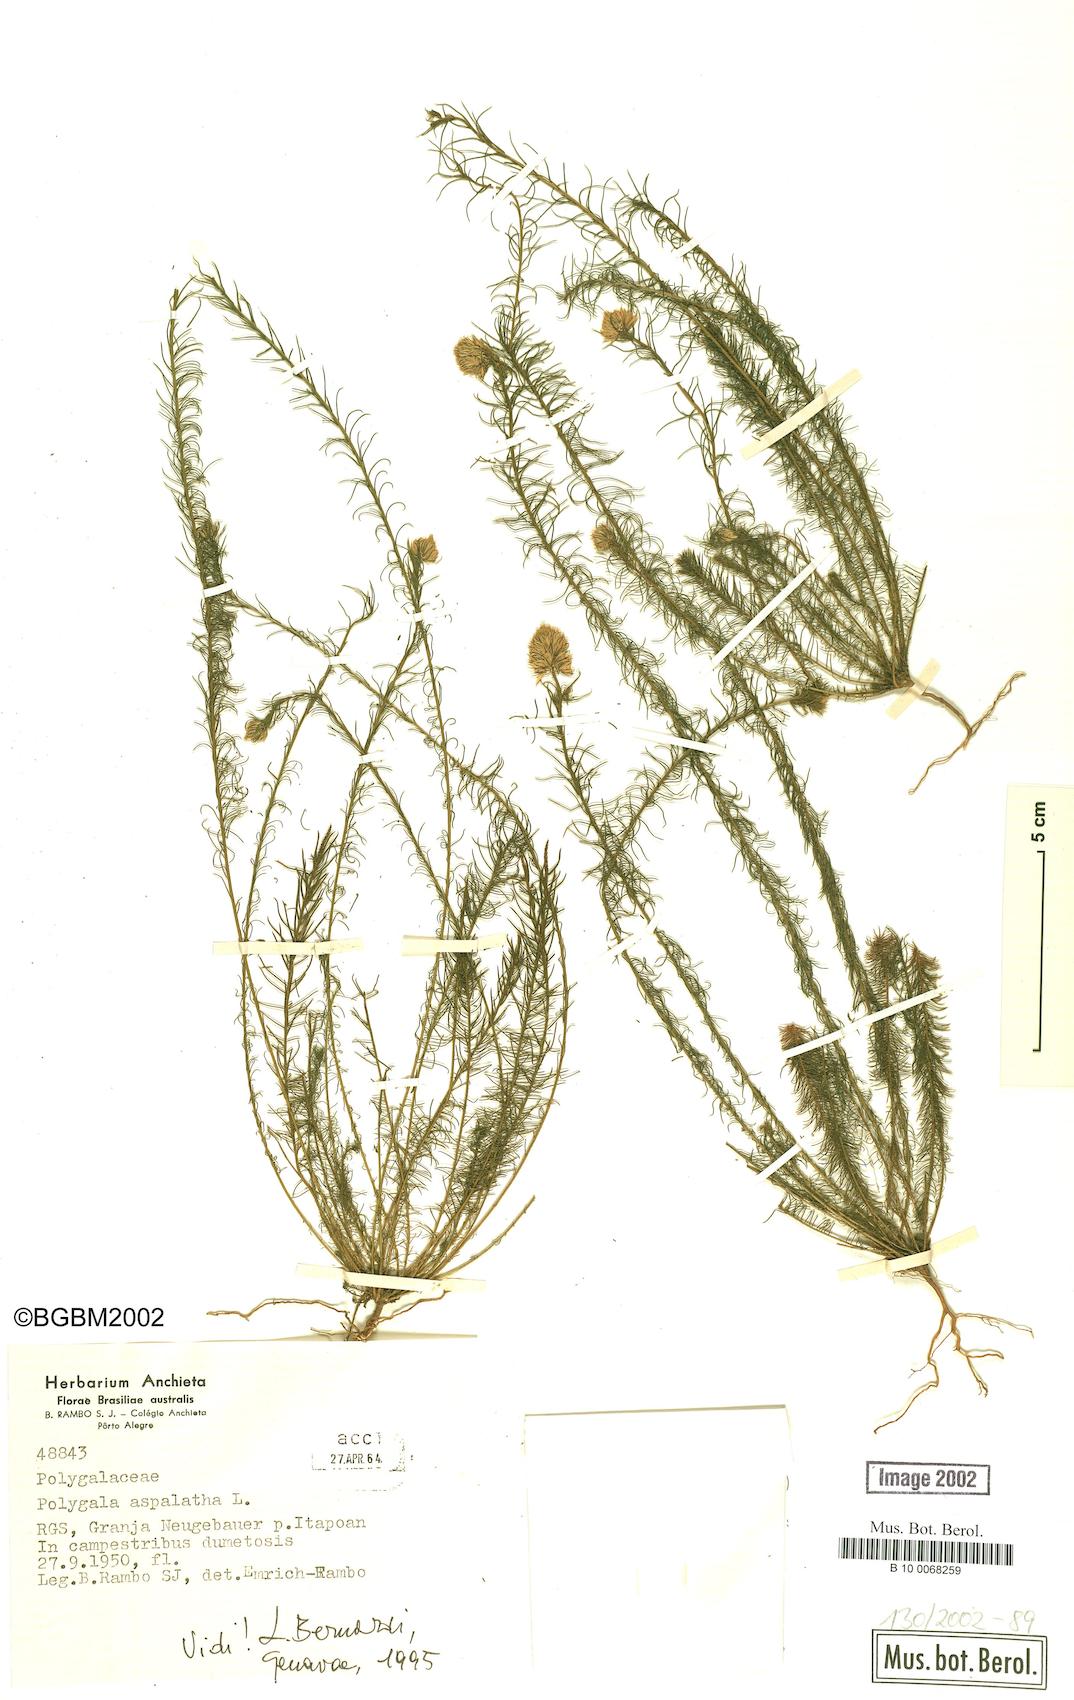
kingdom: Plantae
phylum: Tracheophyta
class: Magnoliopsida
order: Fabales
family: Polygalaceae
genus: Polygala
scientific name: Polygala aspalatha
